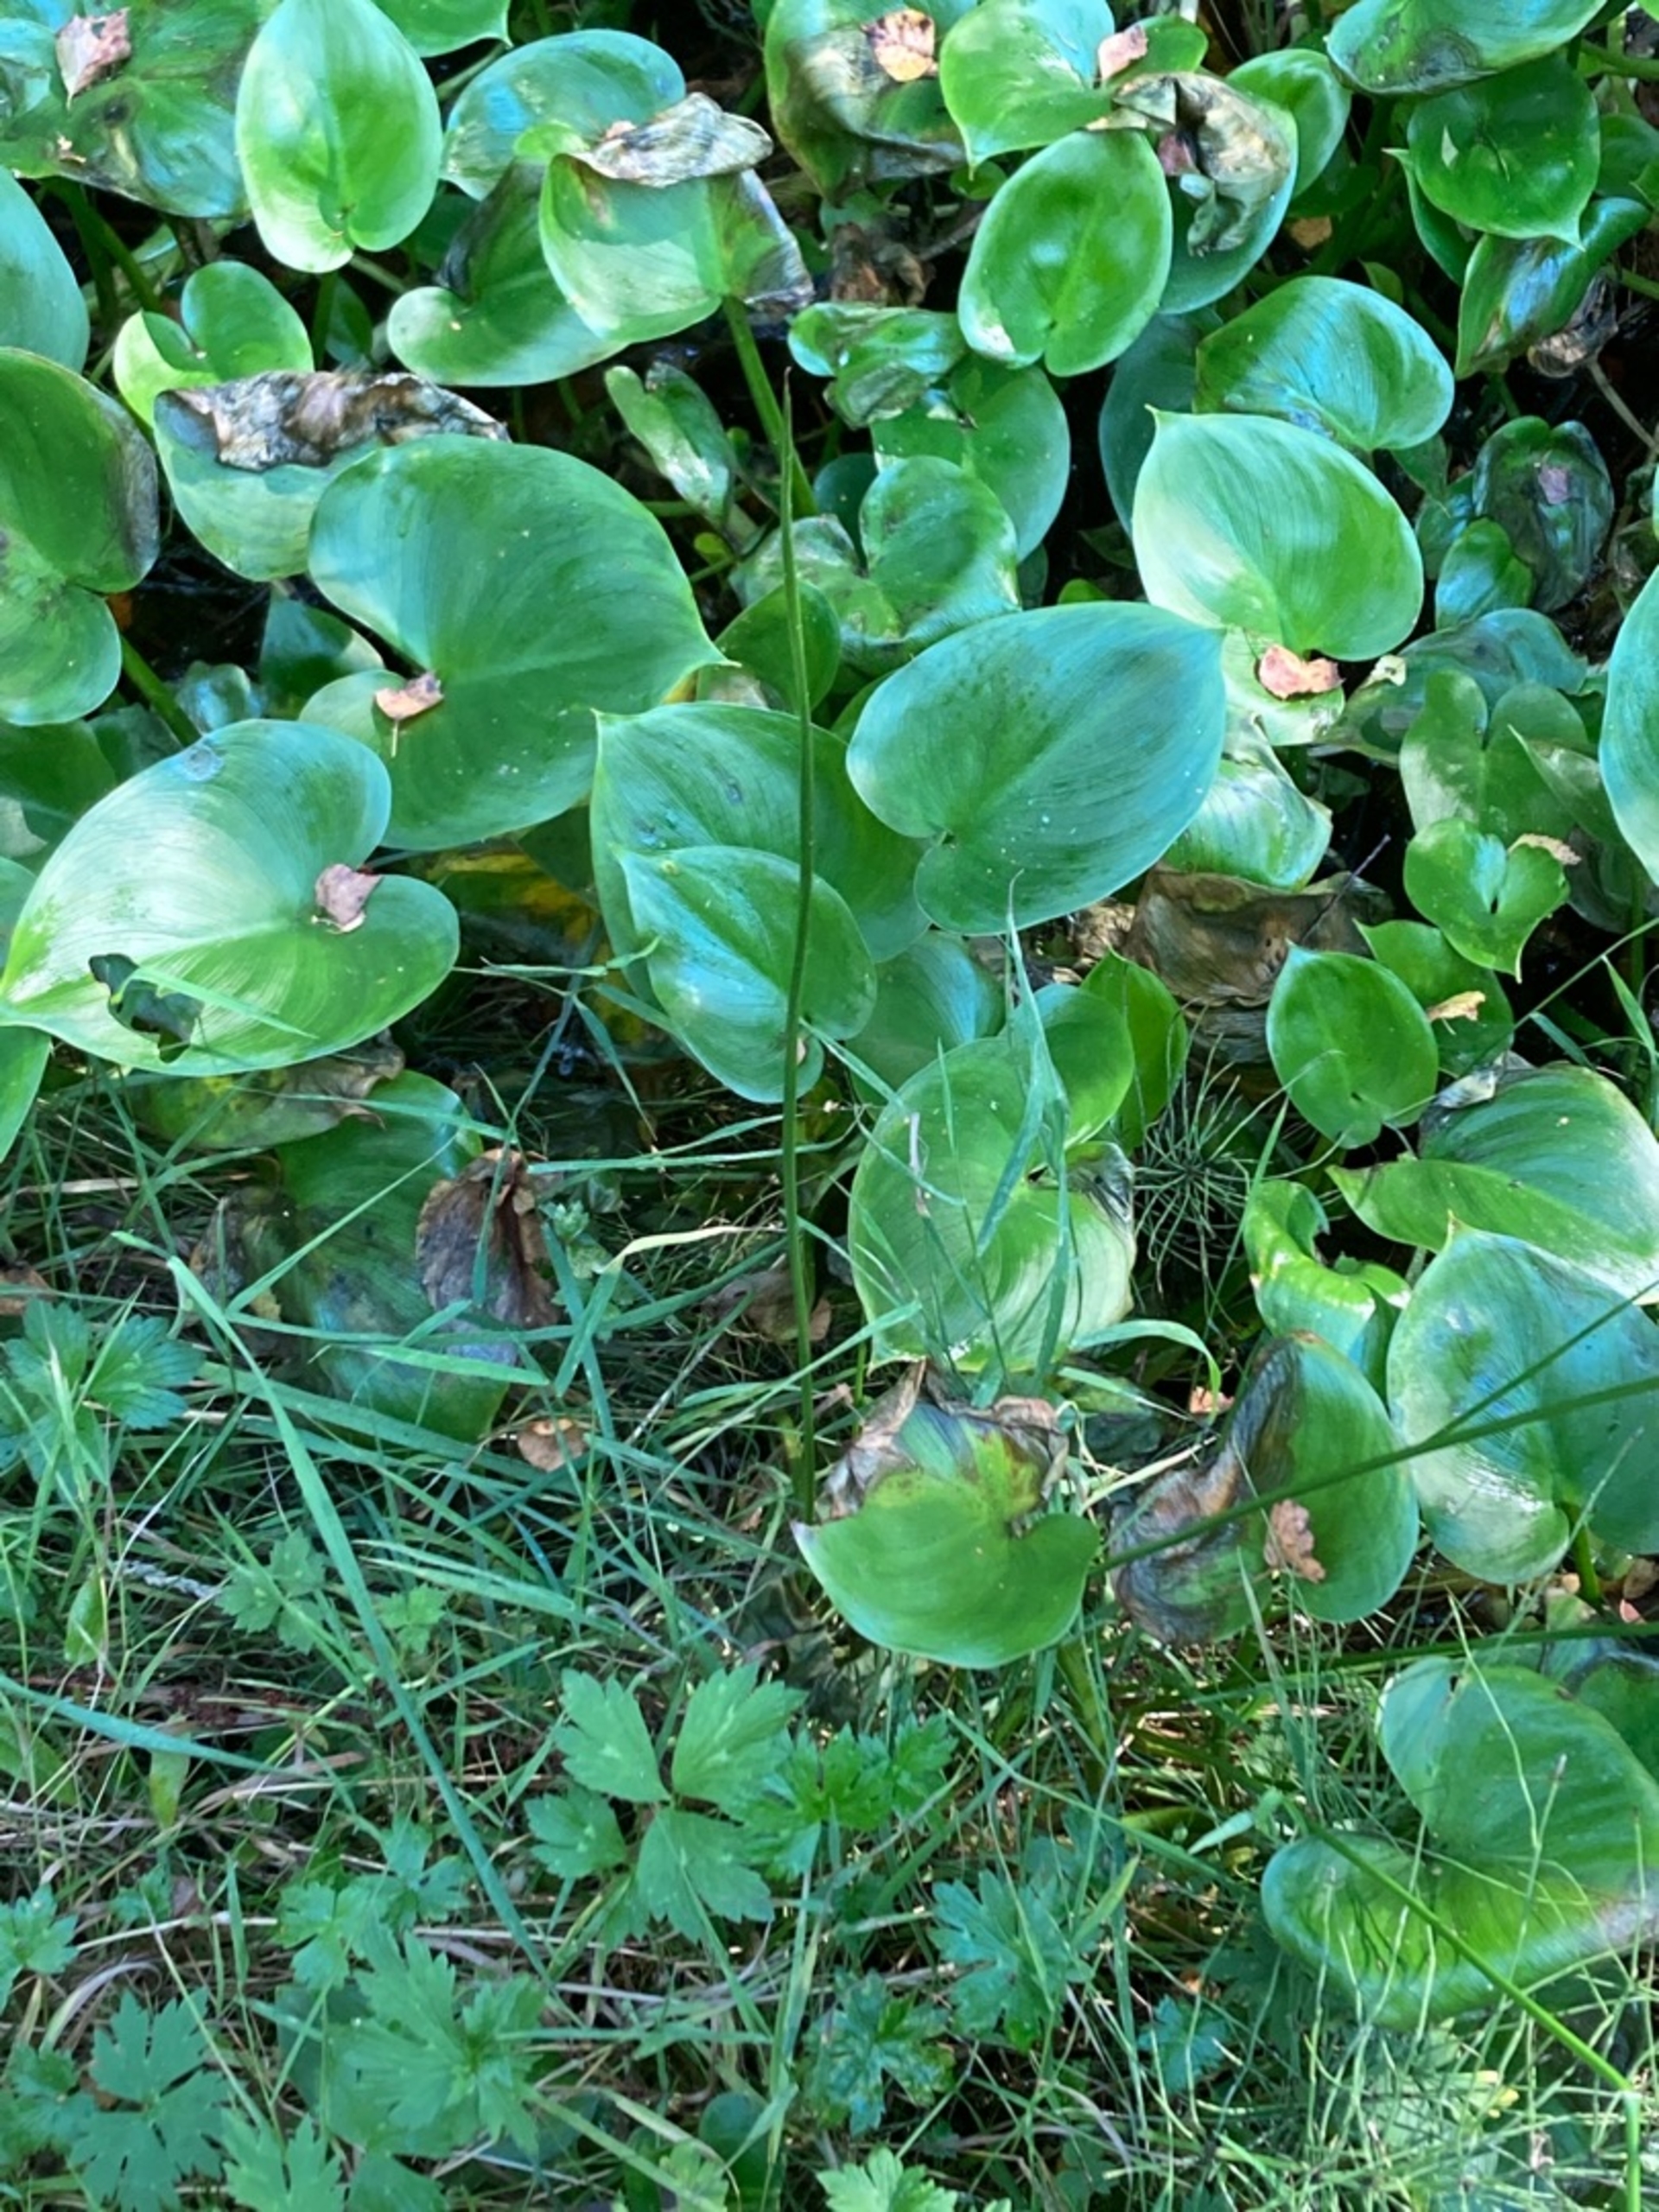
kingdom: Plantae
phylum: Tracheophyta
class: Liliopsida
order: Alismatales
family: Araceae
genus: Calla
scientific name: Calla palustris
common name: Kærmysse
